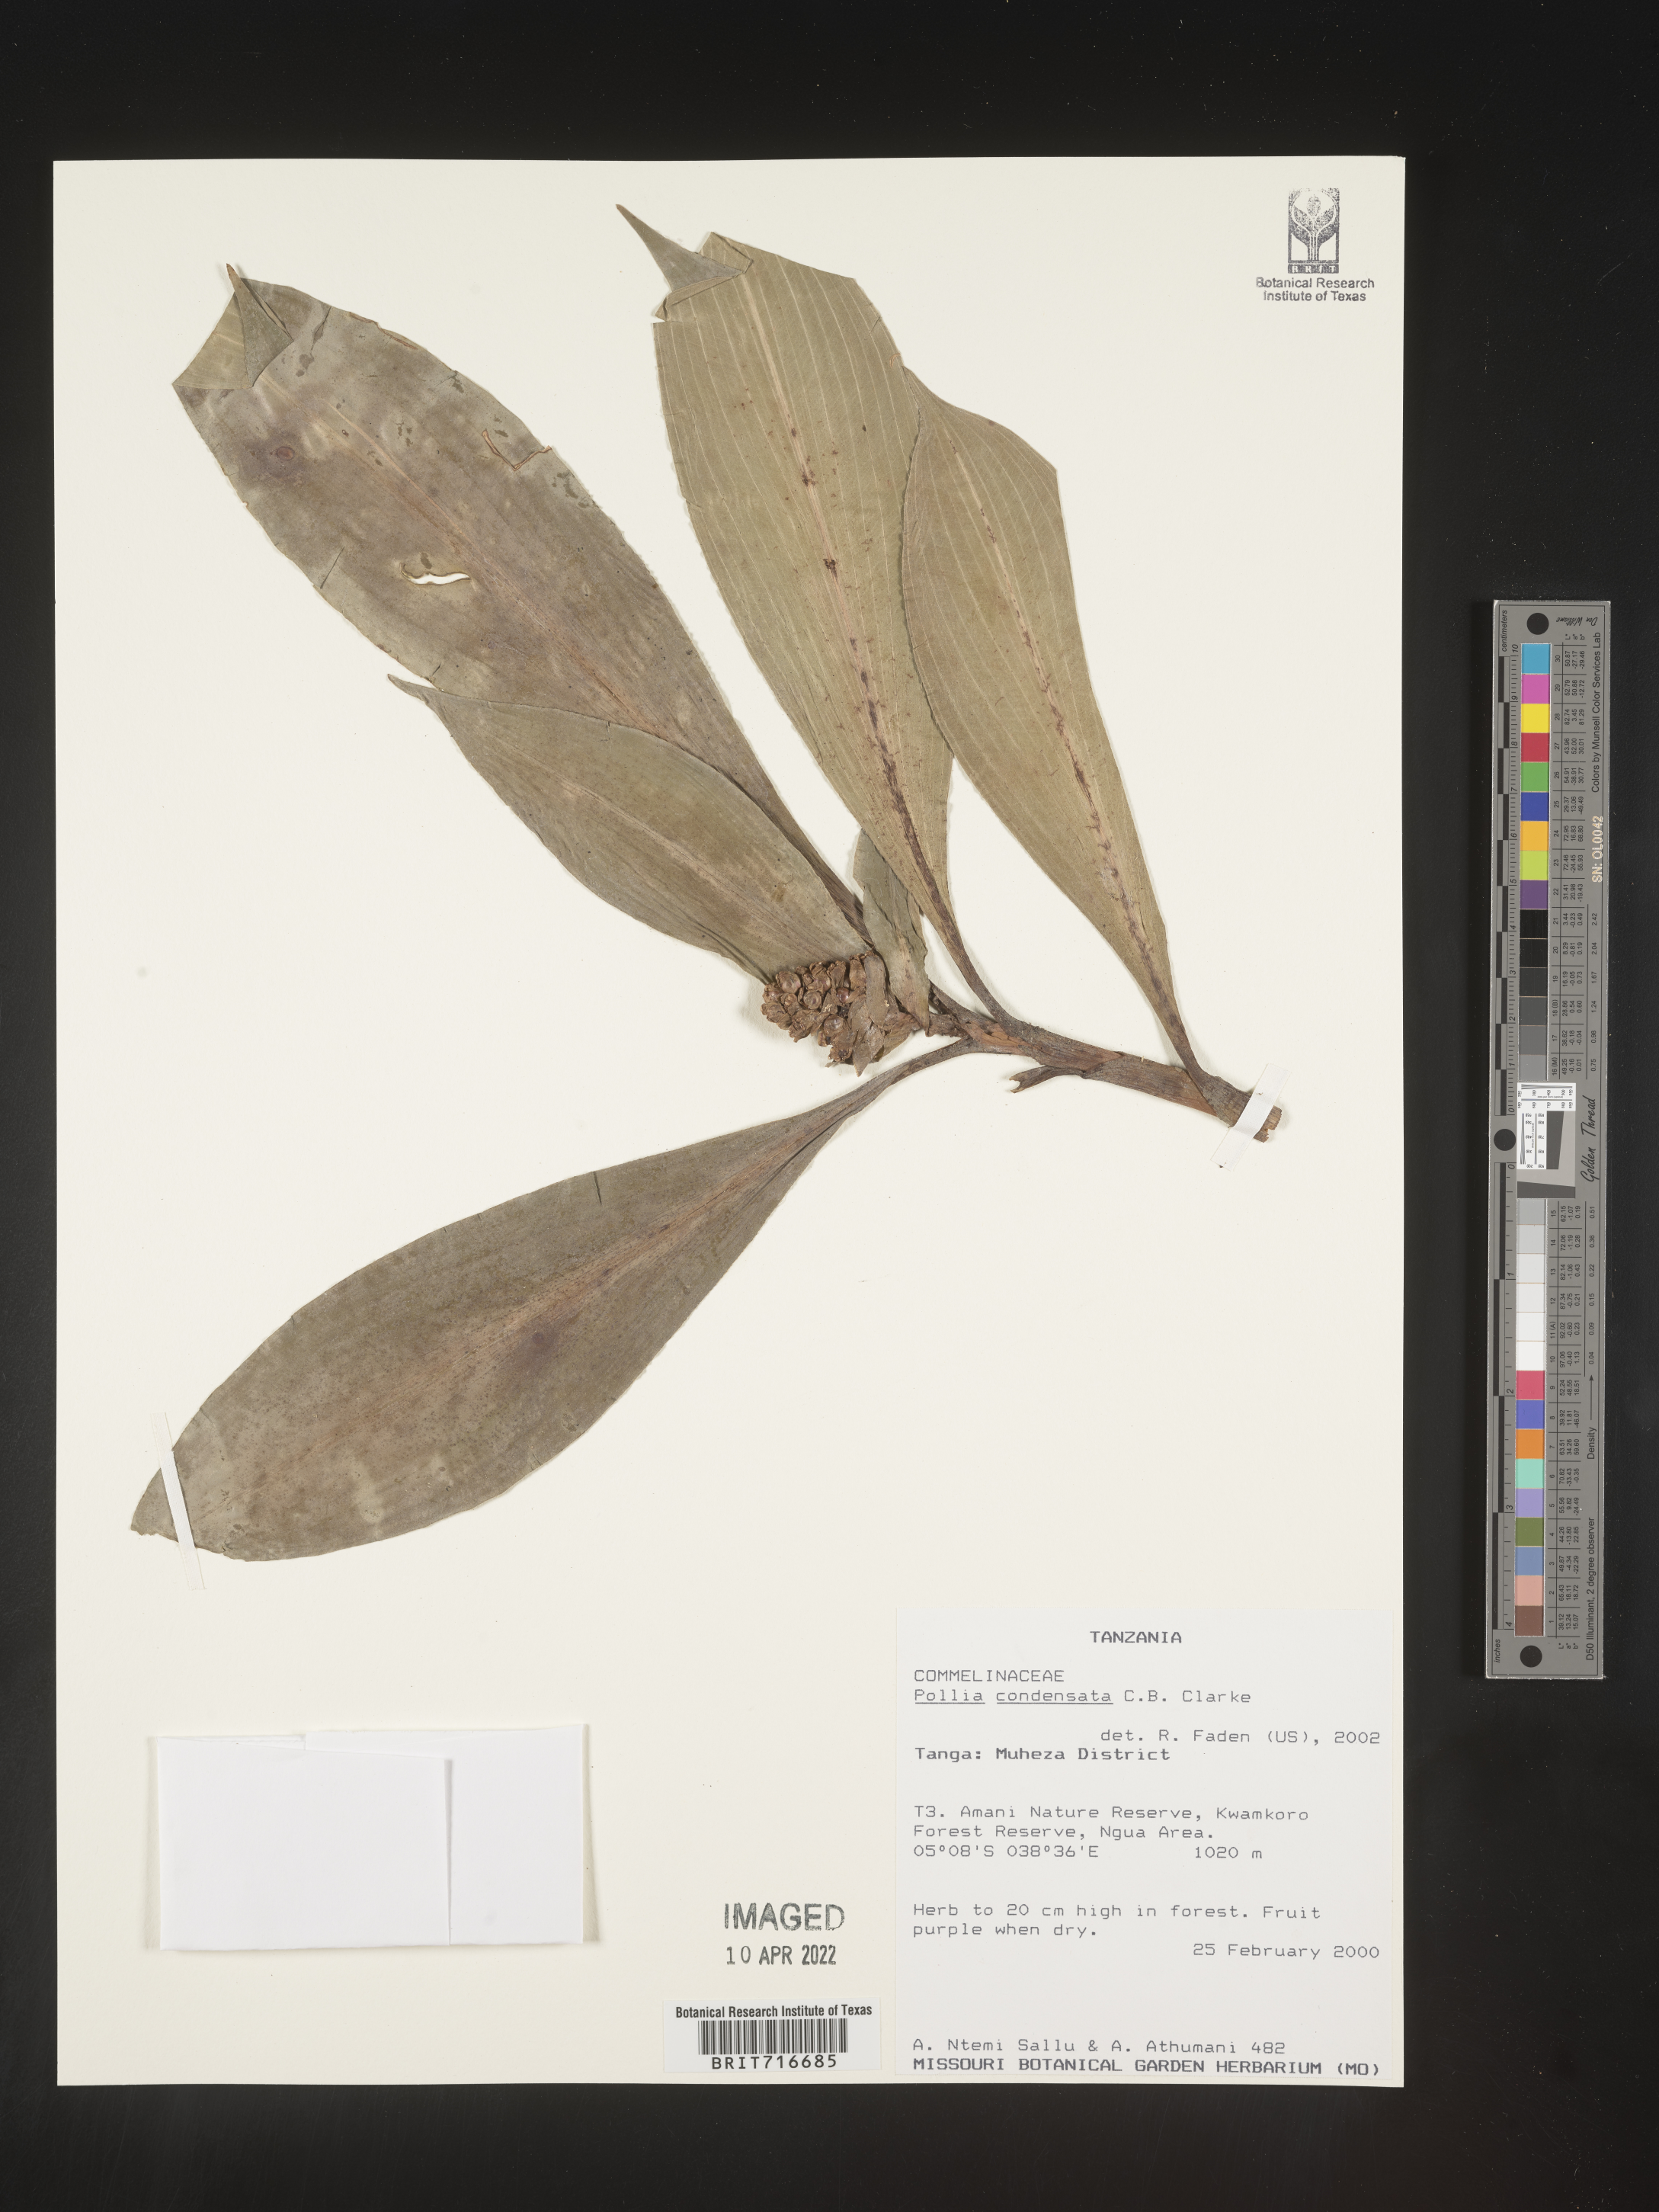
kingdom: Plantae
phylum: Tracheophyta
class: Liliopsida
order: Commelinales
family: Commelinaceae
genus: Pollia
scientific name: Pollia
